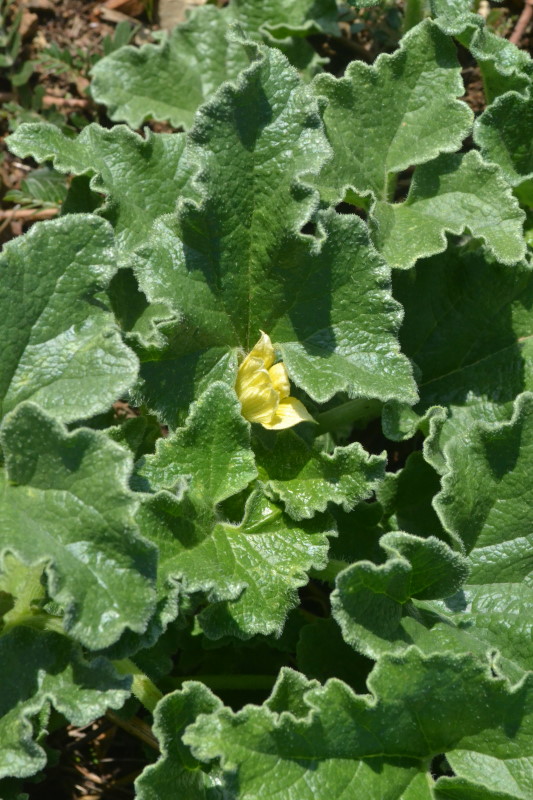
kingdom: Plantae
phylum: Tracheophyta
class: Magnoliopsida
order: Cucurbitales
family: Cucurbitaceae
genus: Ecballium
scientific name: Ecballium elaterium
